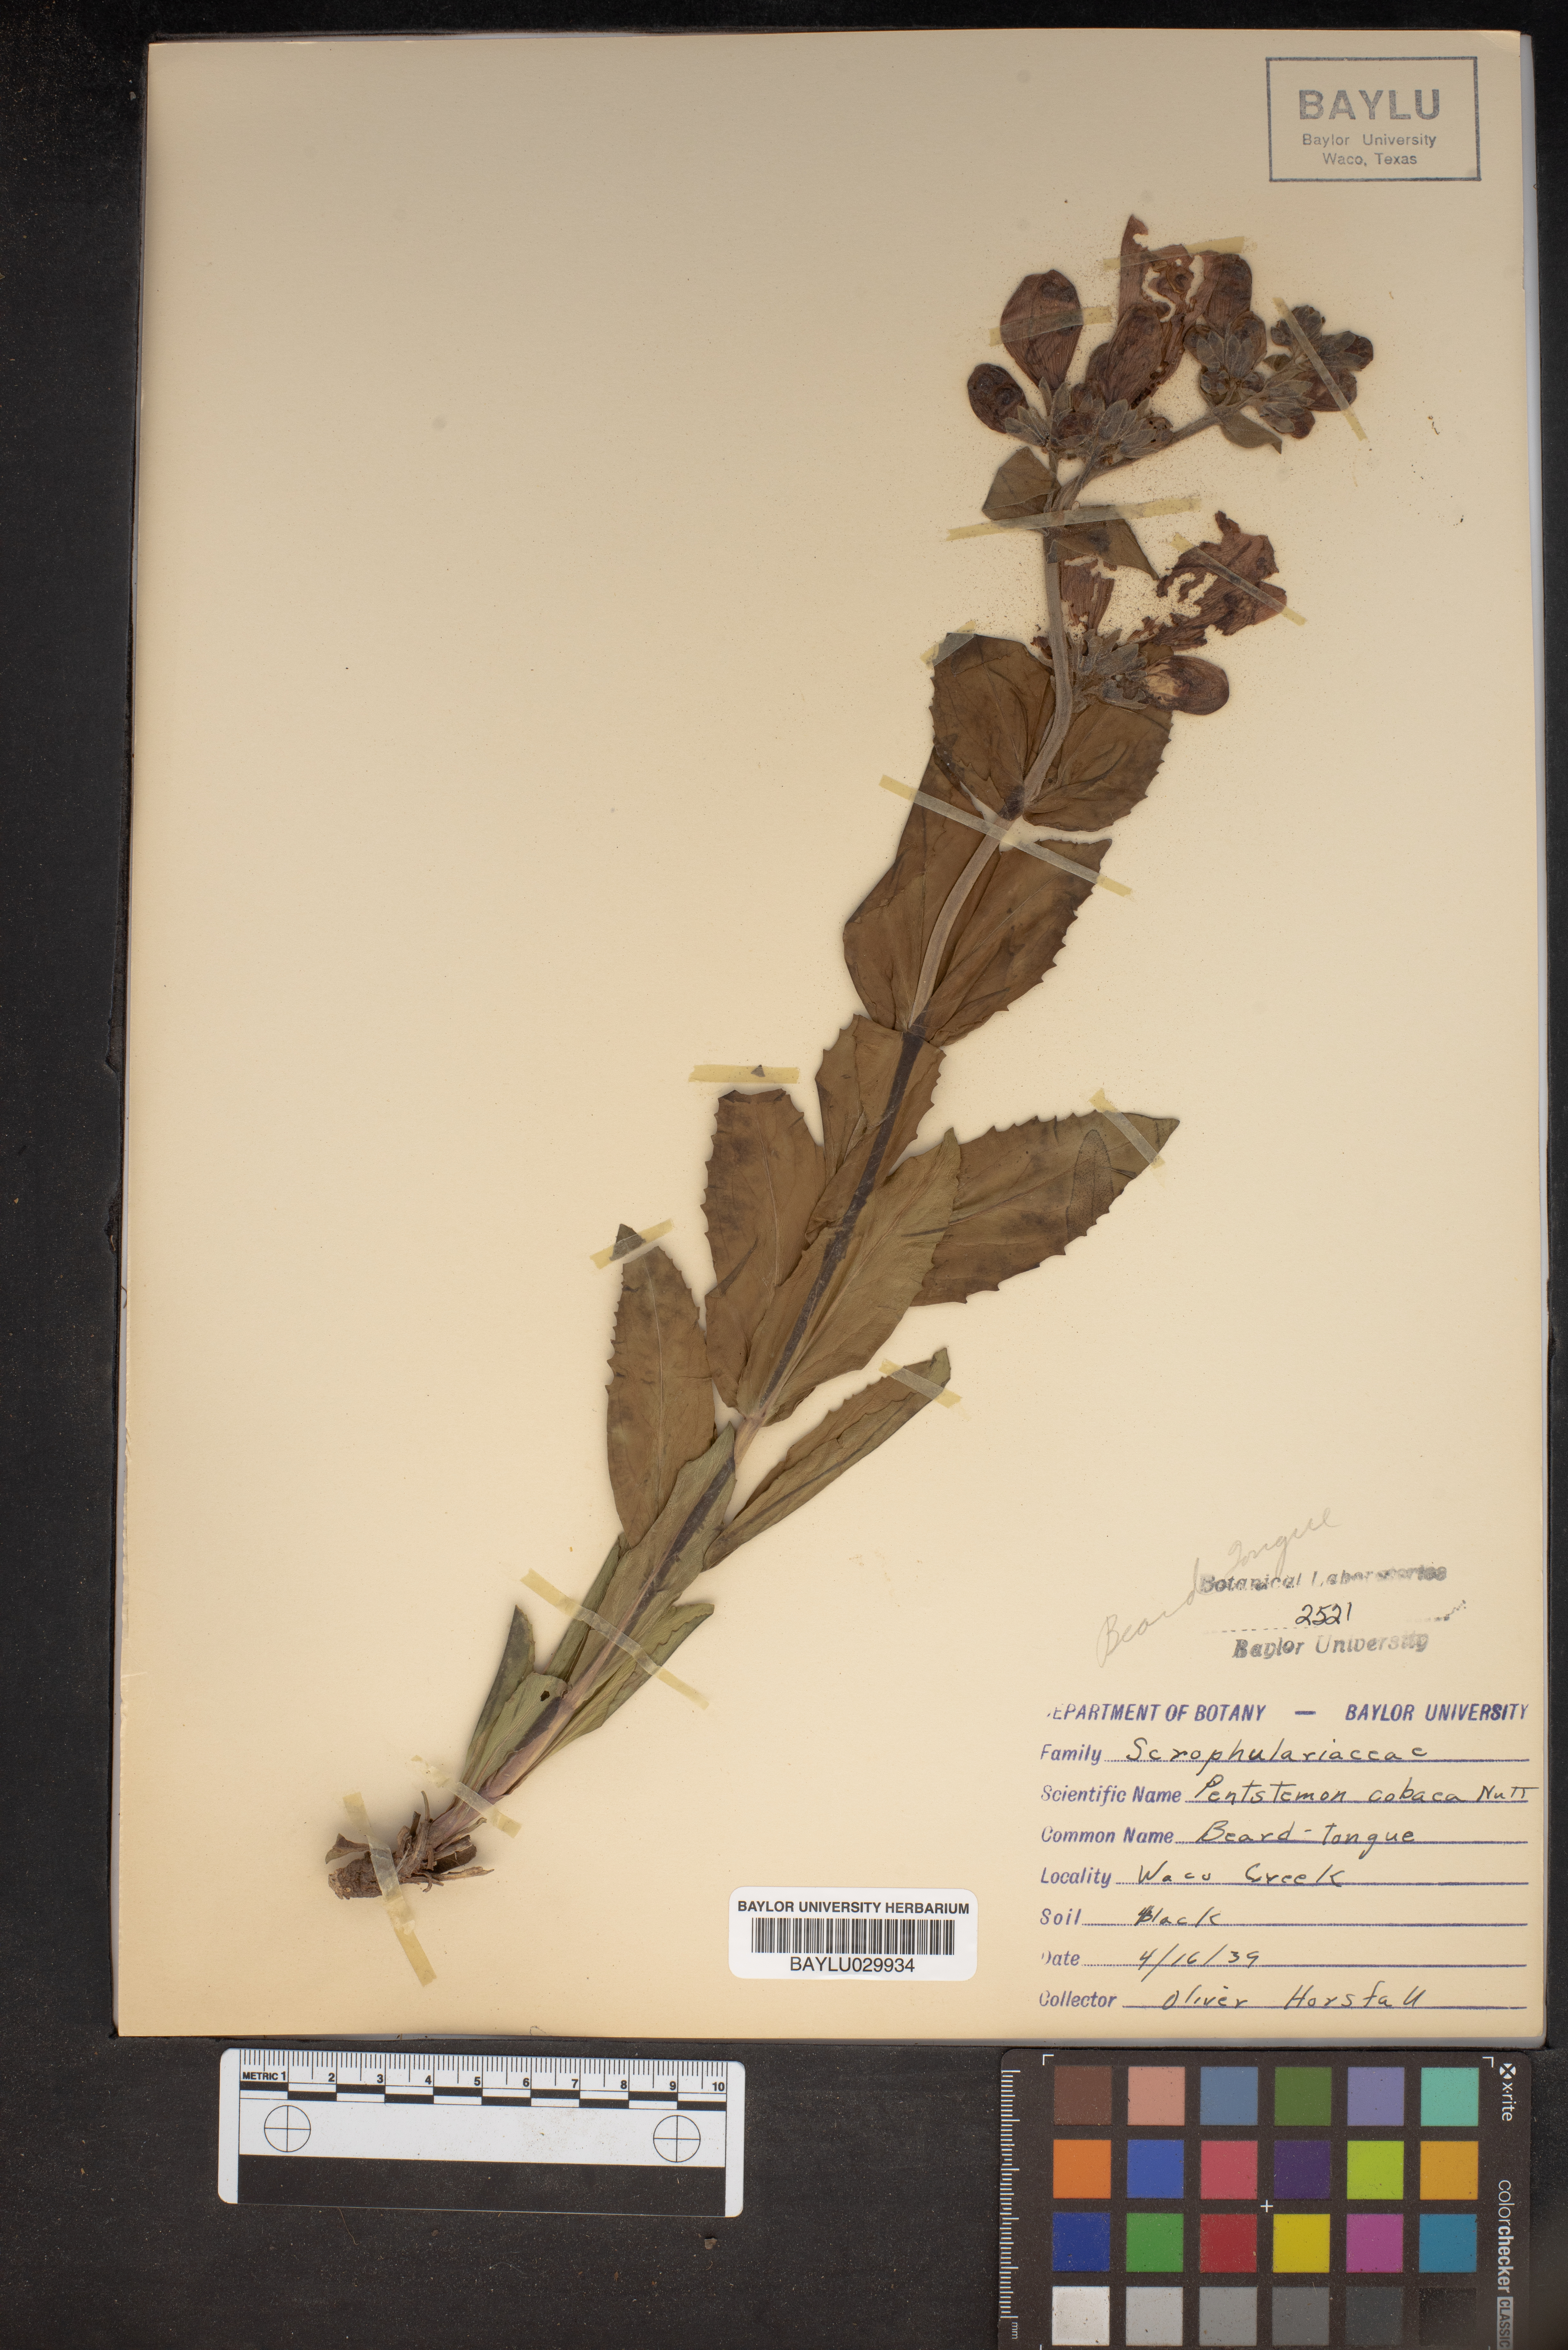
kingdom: Plantae
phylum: Tracheophyta
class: Magnoliopsida
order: Lamiales
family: Plantaginaceae
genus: Penstemon
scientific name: Penstemon cobaea
